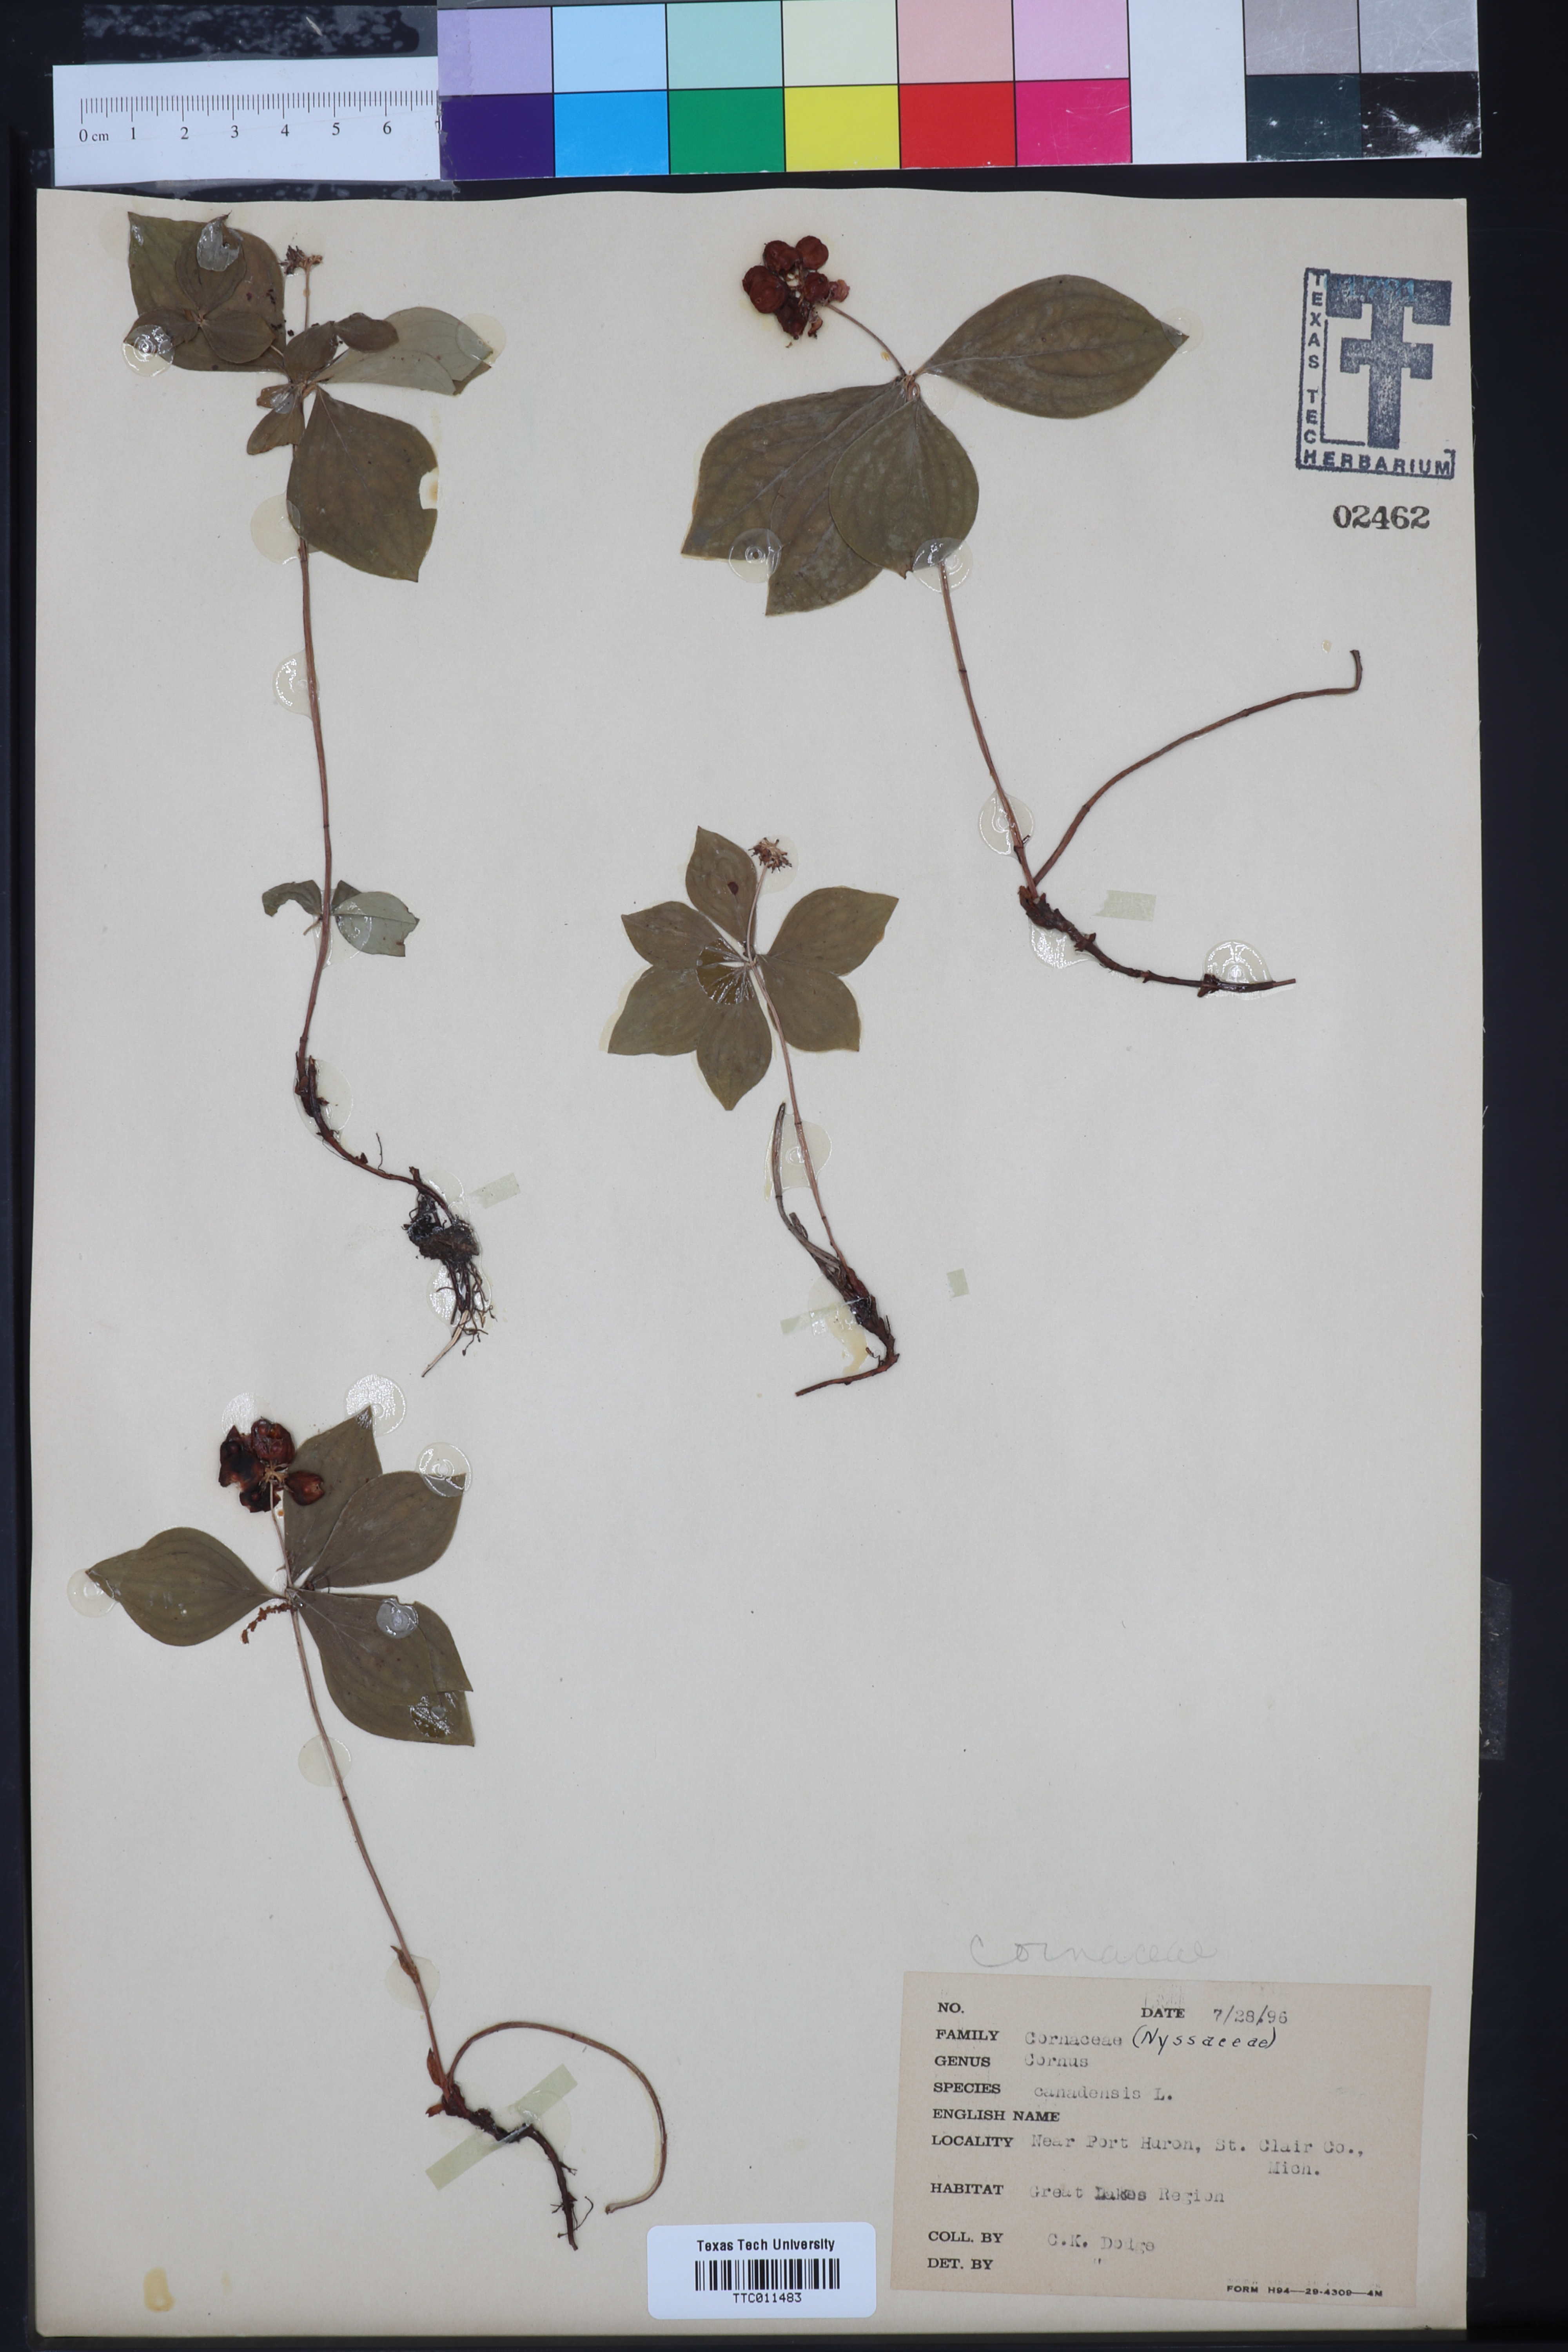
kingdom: Plantae
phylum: Tracheophyta
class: Magnoliopsida
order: Cornales
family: Cornaceae
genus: Cornus
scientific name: Cornus amomum
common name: Silky dogwood
